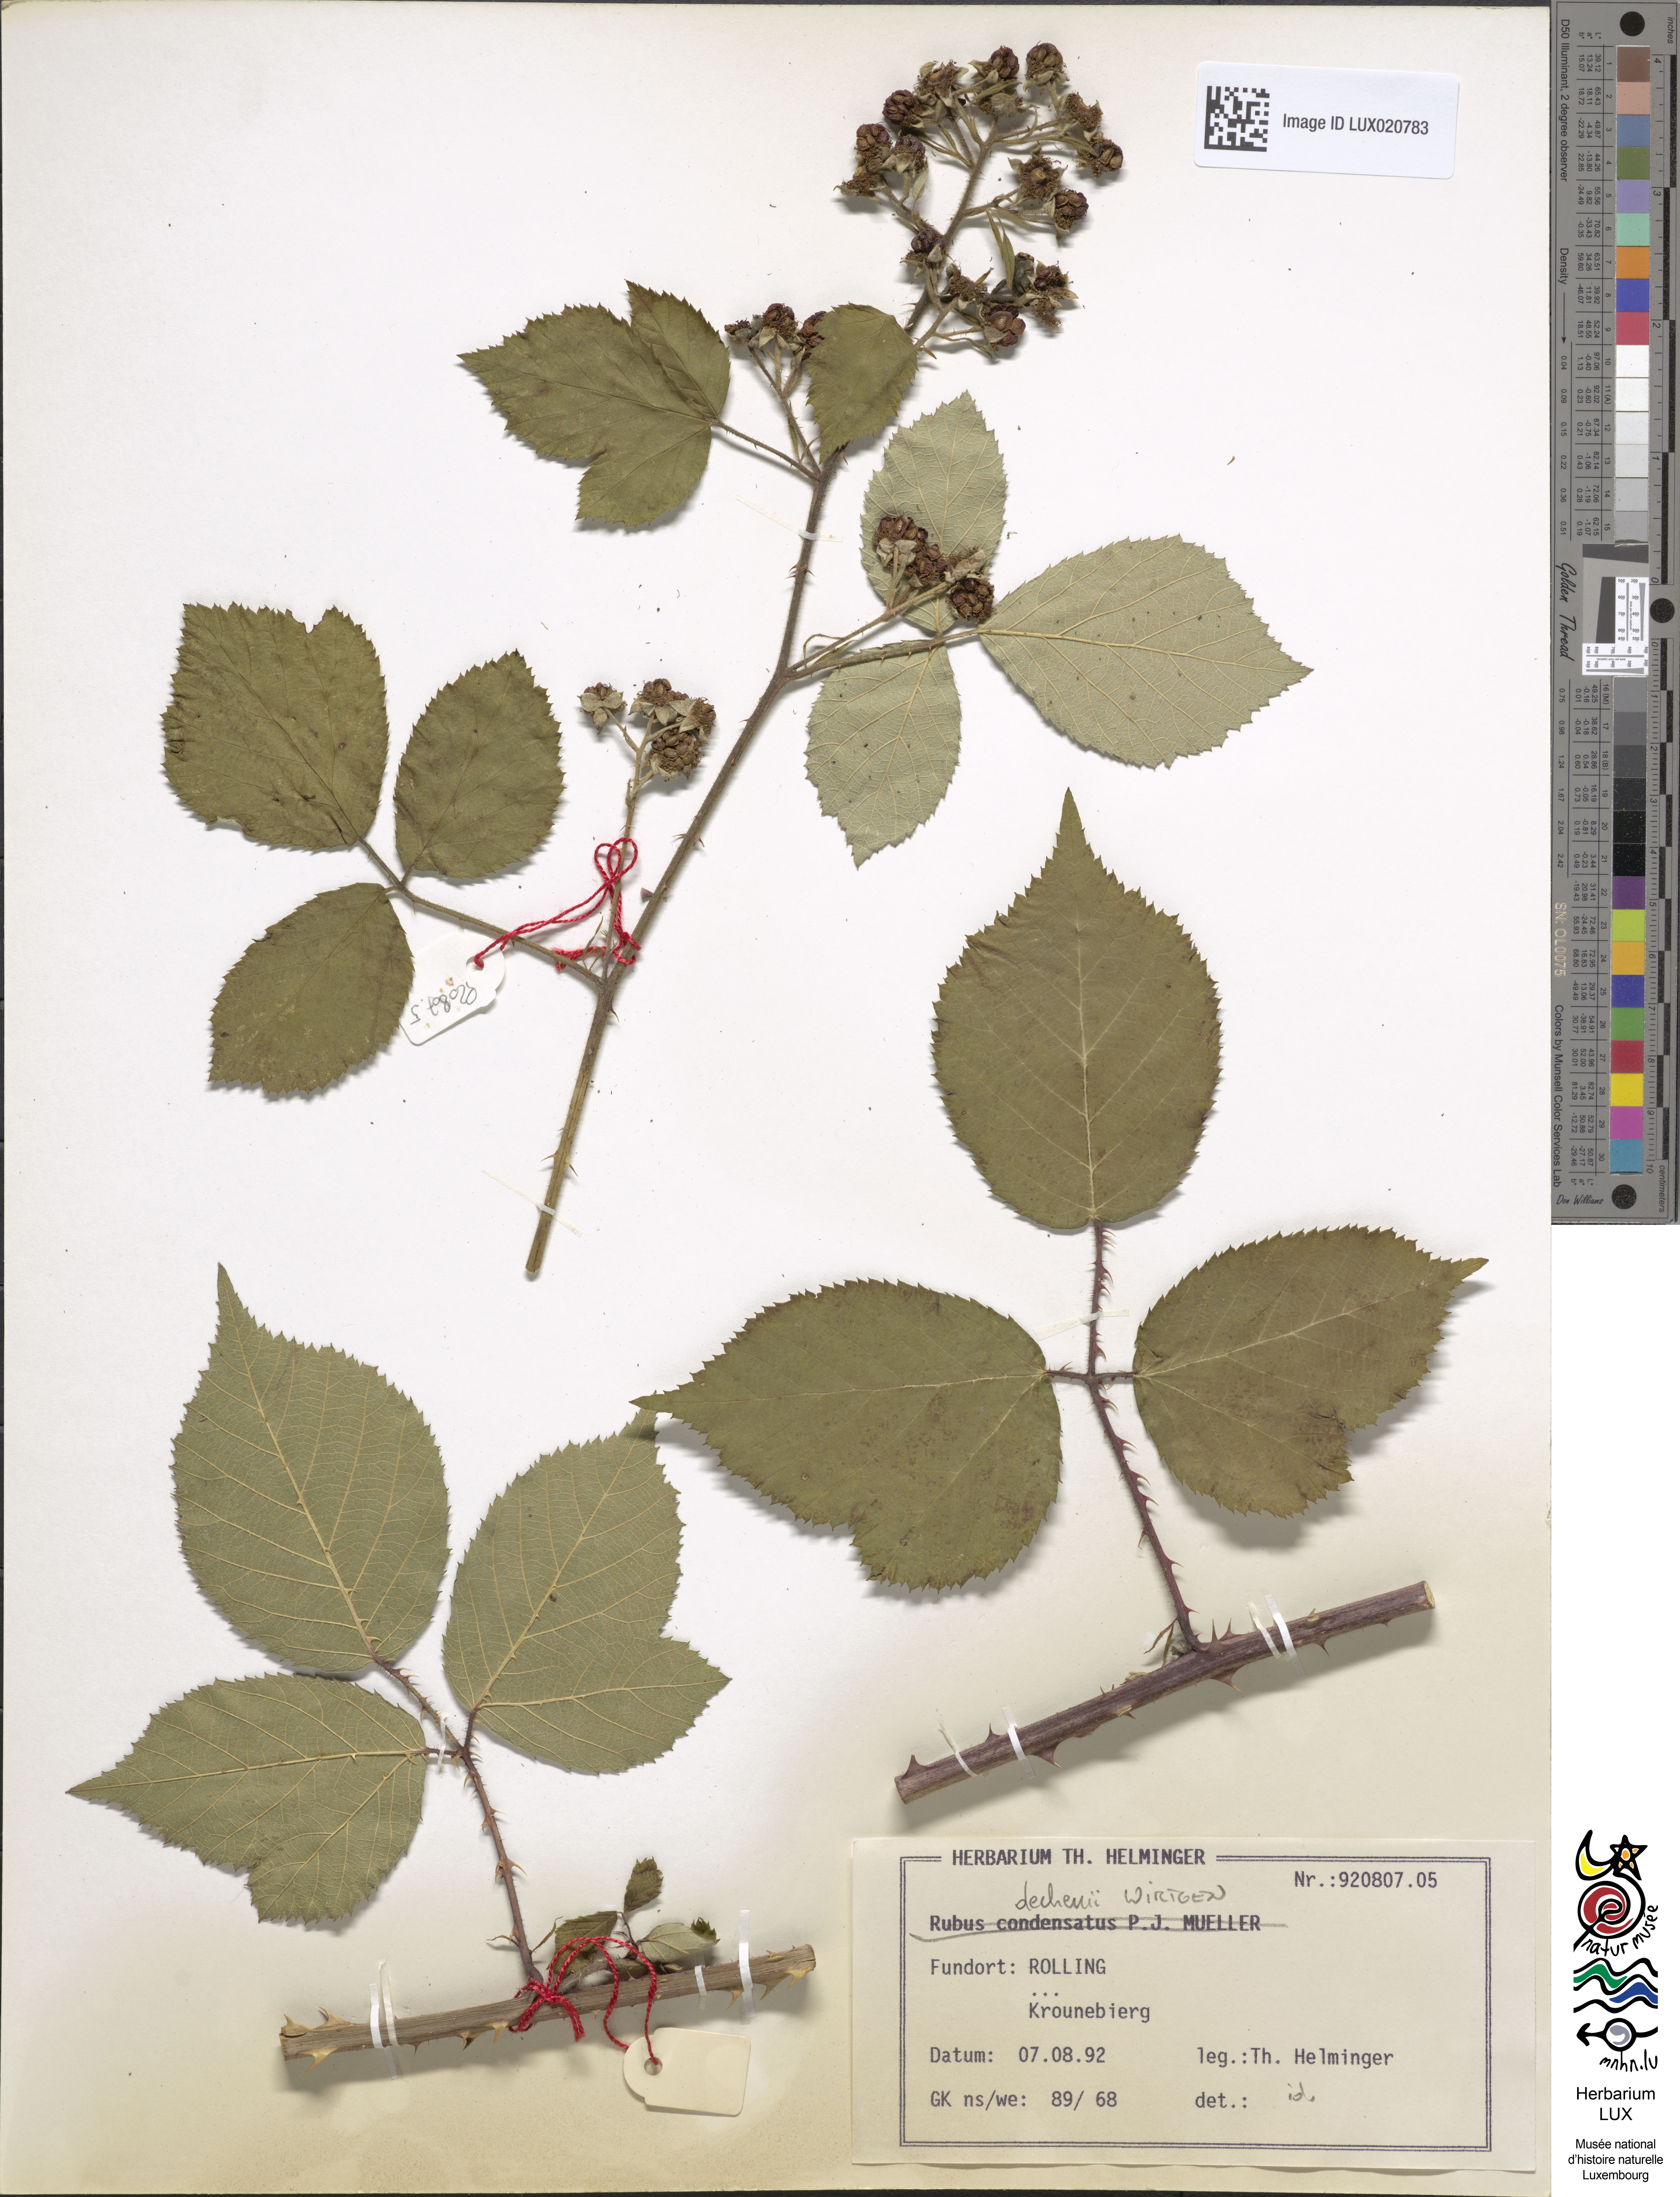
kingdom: Plantae
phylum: Tracheophyta
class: Magnoliopsida
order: Rosales
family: Rosaceae
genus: Rubus
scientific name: Rubus
